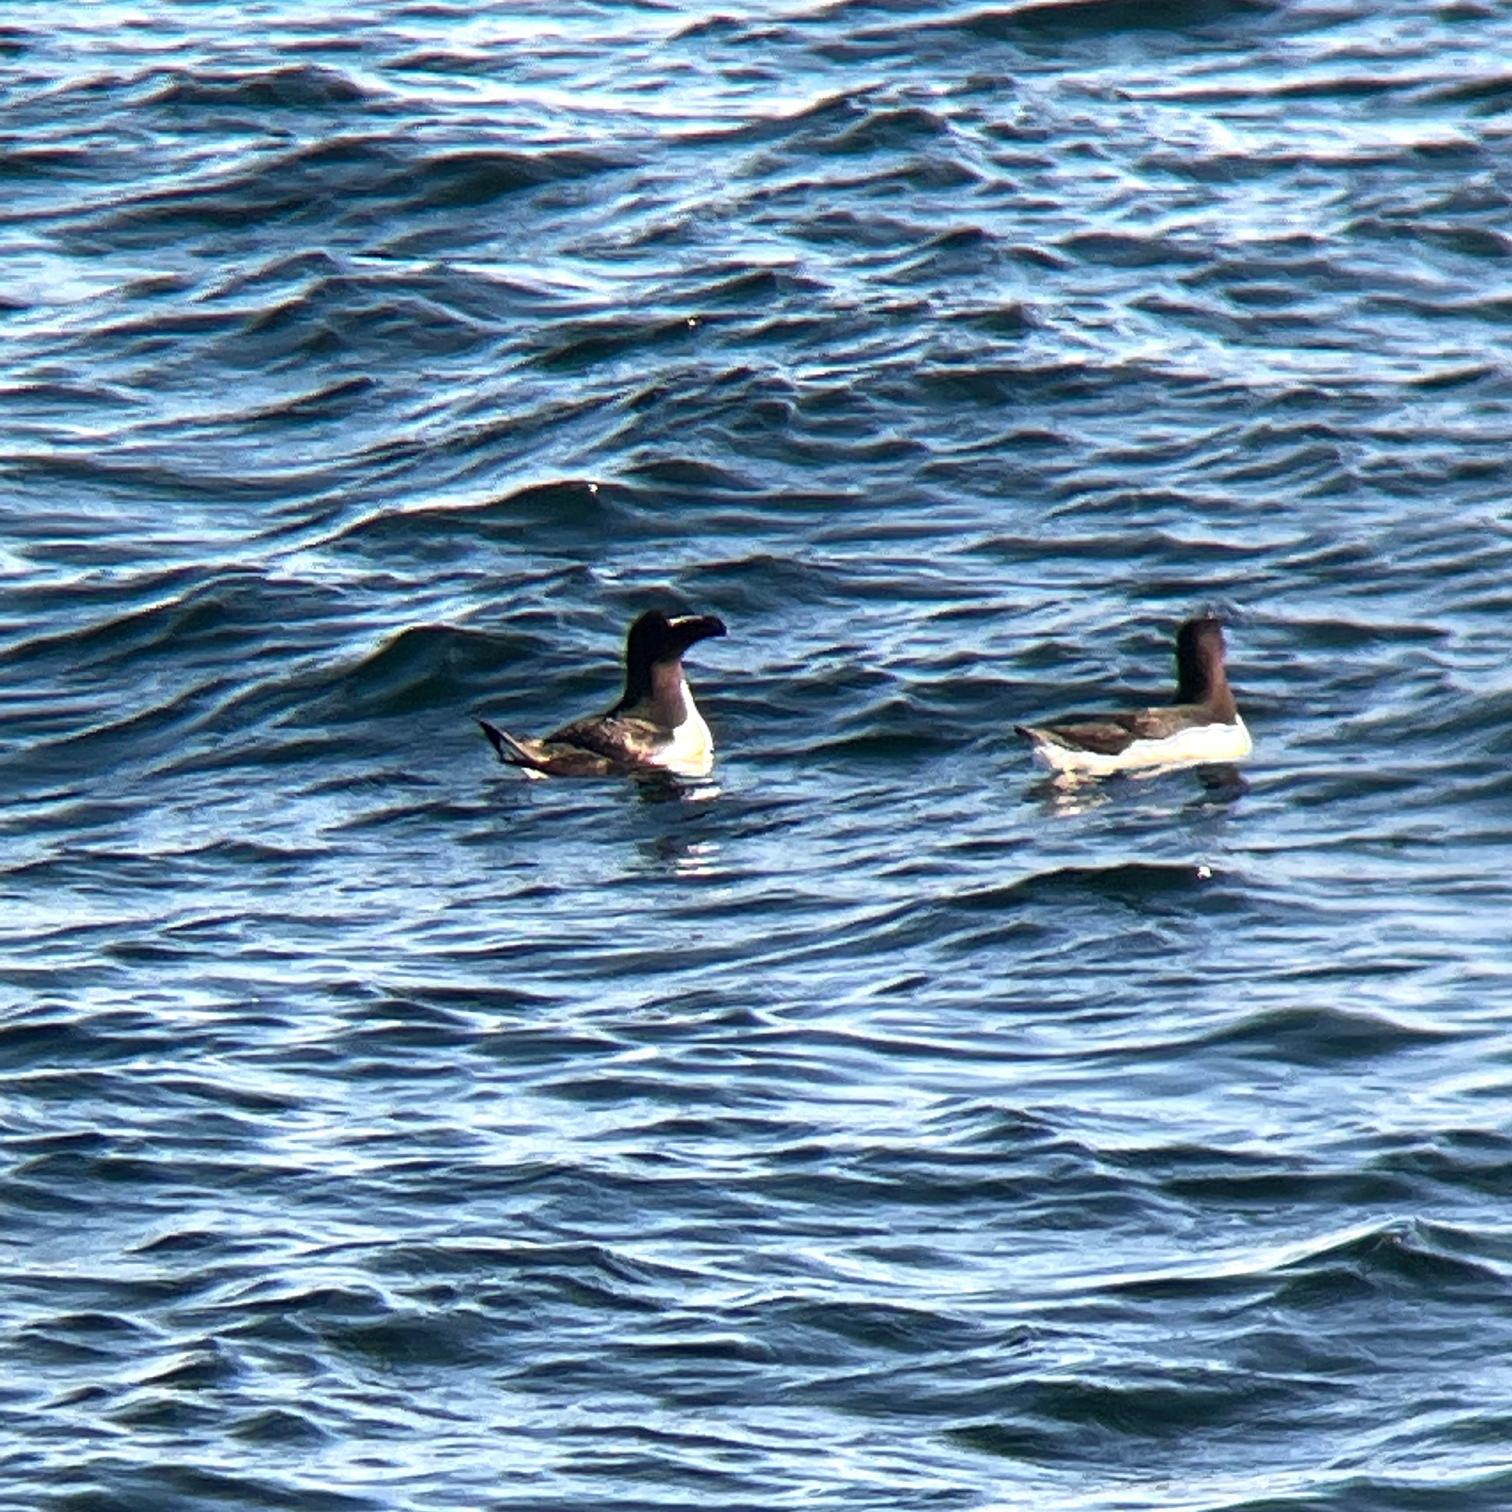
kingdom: Animalia
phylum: Chordata
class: Aves
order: Charadriiformes
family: Alcidae
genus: Alca
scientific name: Alca torda
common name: Alk
